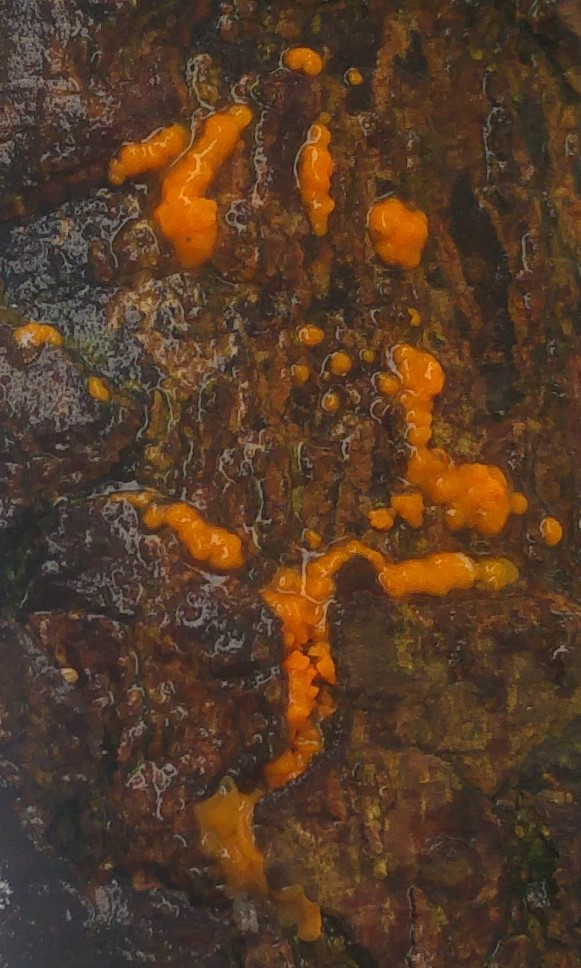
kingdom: Fungi
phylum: Basidiomycota
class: Dacrymycetes
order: Dacrymycetales
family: Dacrymycetaceae
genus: Dacrymyces
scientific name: Dacrymyces stillatus
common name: almindelig tåresvamp
